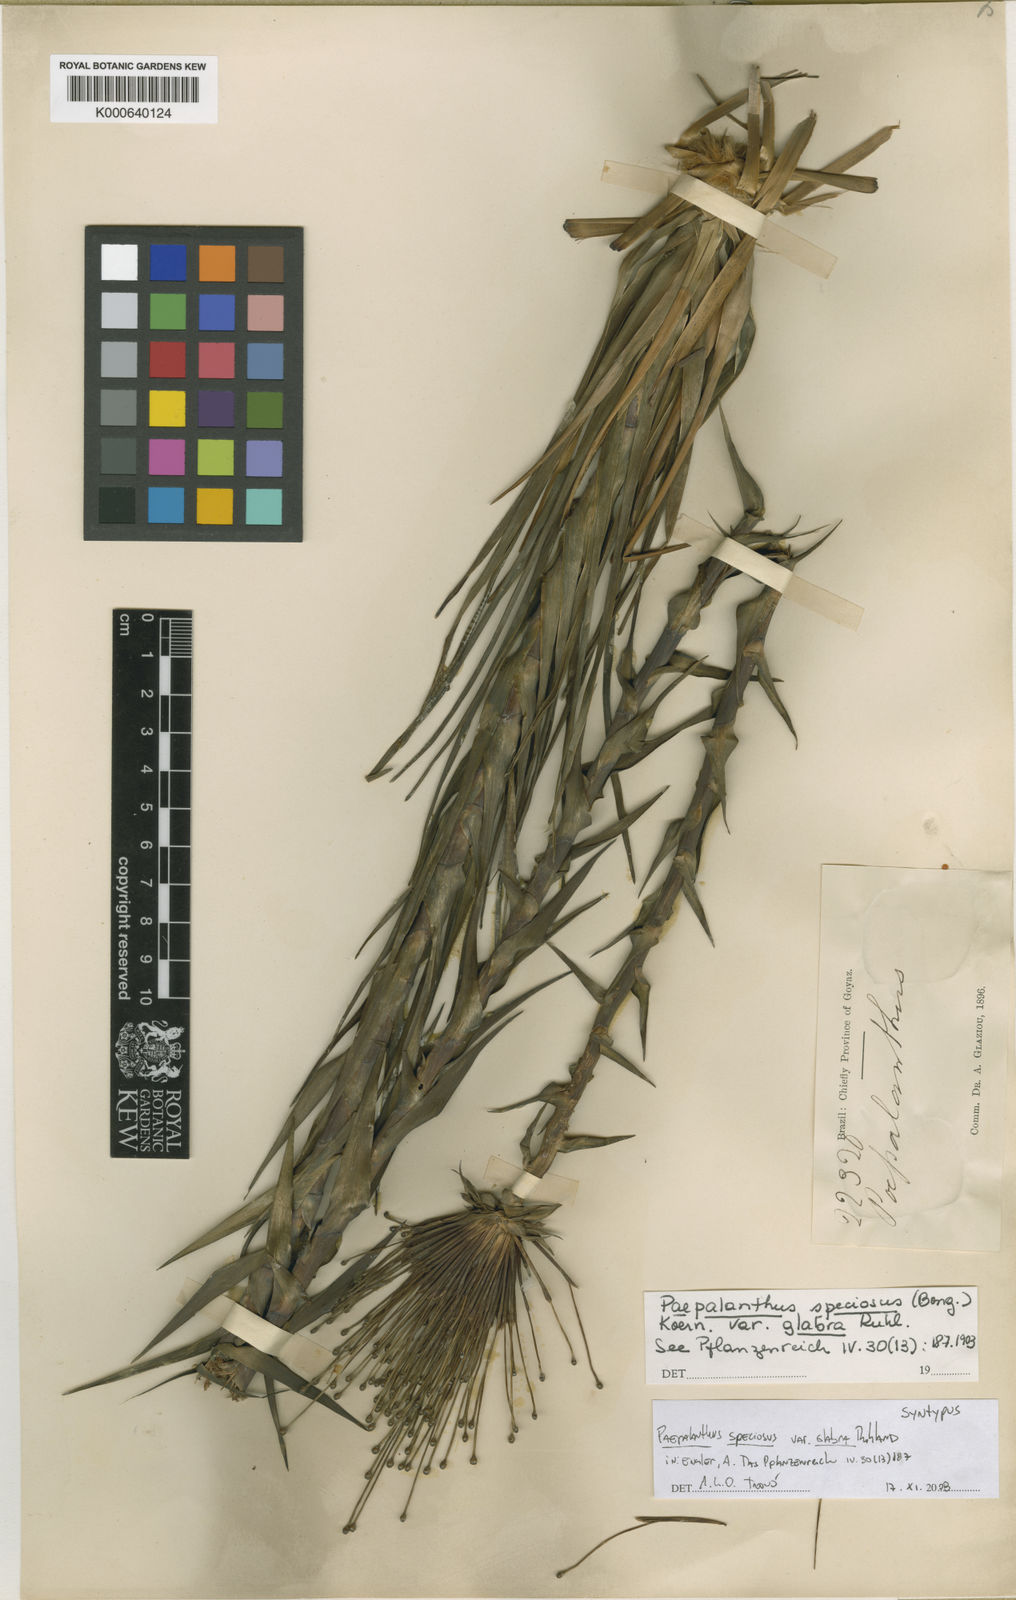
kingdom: Plantae
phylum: Tracheophyta
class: Liliopsida
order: Poales
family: Eriocaulaceae
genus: Paepalanthus
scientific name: Paepalanthus chiquitensis
